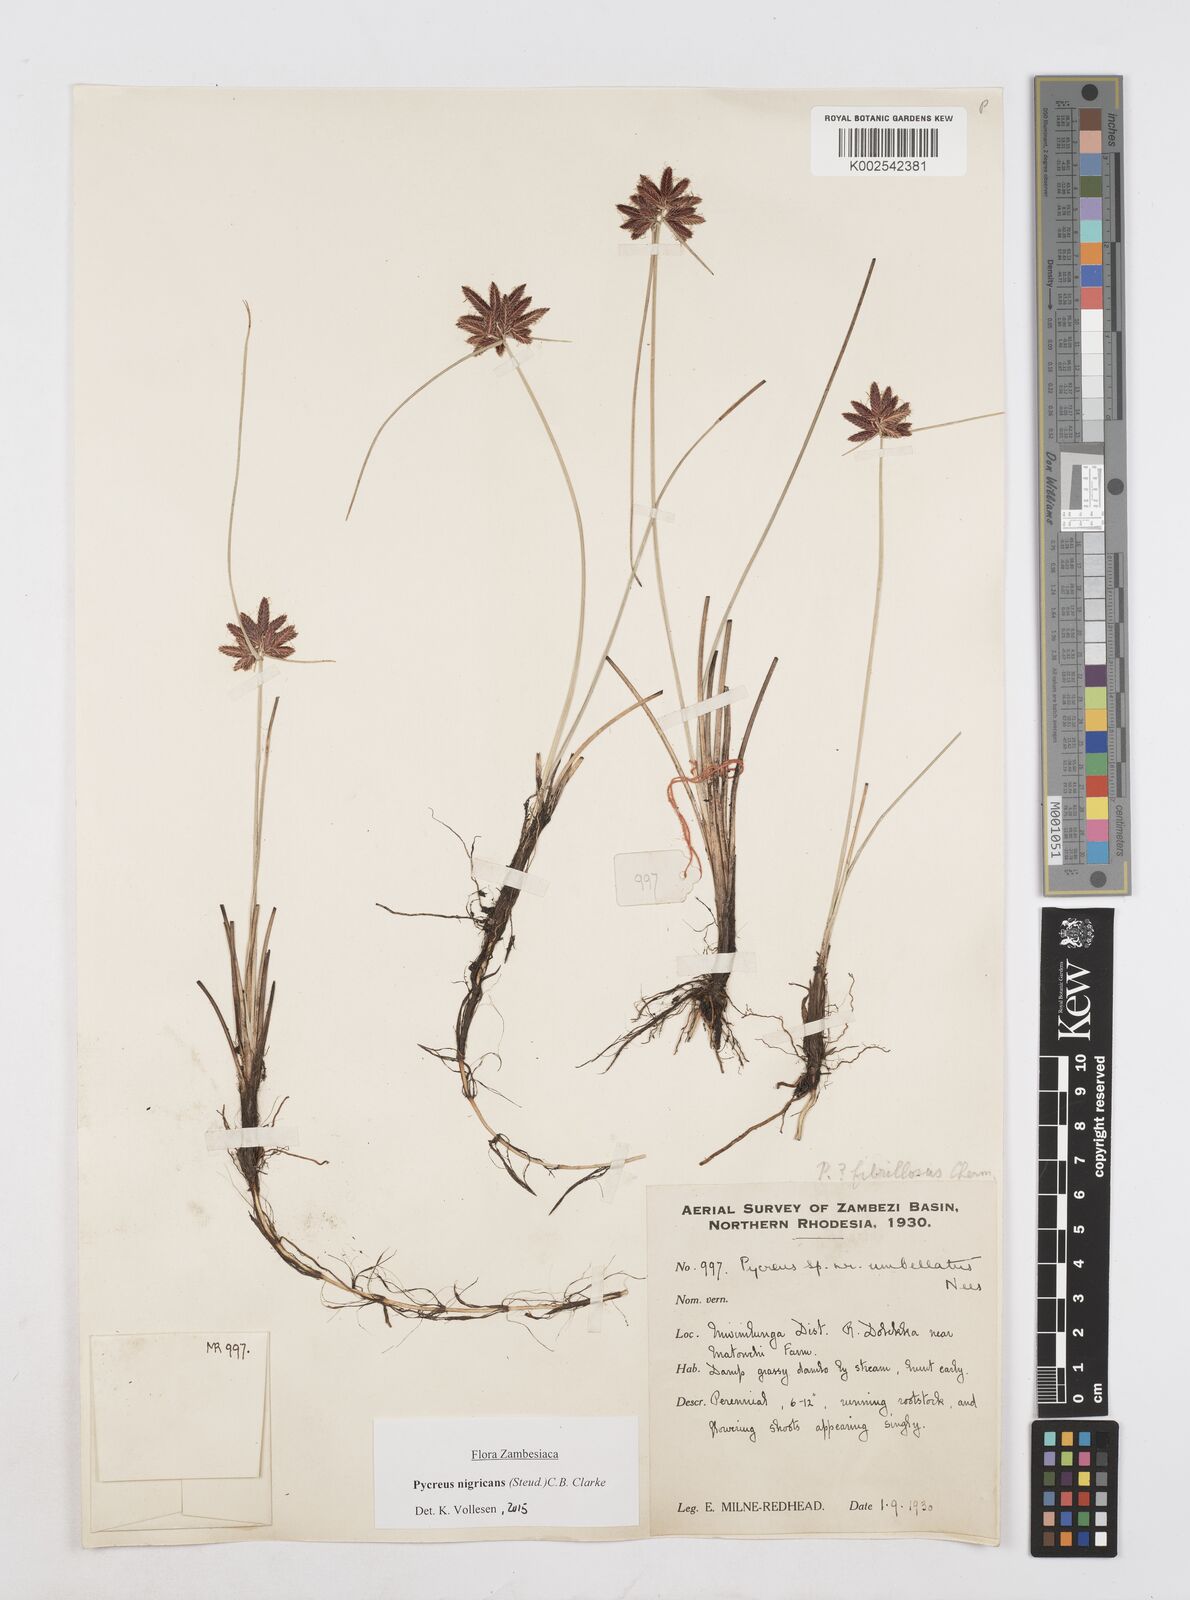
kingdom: Plantae
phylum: Tracheophyta
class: Liliopsida
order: Poales
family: Cyperaceae
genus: Cyperus
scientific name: Cyperus nigricans
